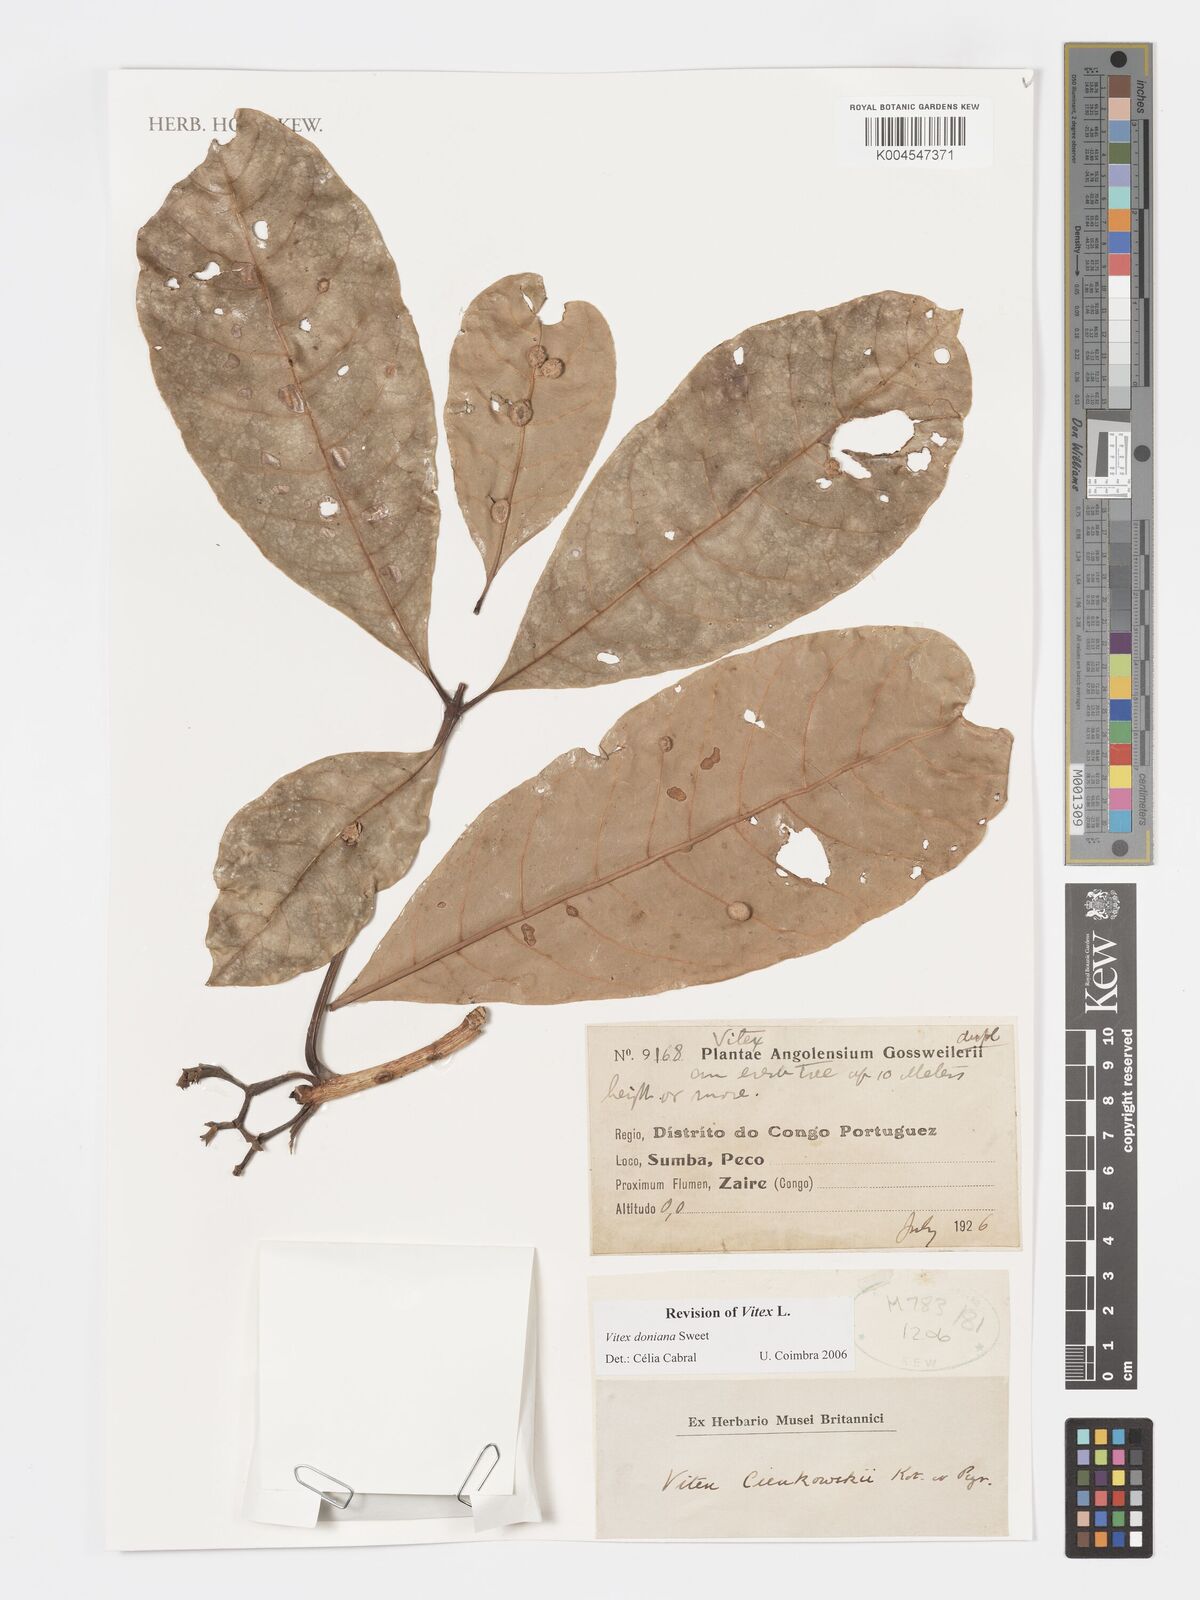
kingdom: Plantae
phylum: Tracheophyta
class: Magnoliopsida
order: Lamiales
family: Lamiaceae
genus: Vitex
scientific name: Vitex doniana
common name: Black plum
